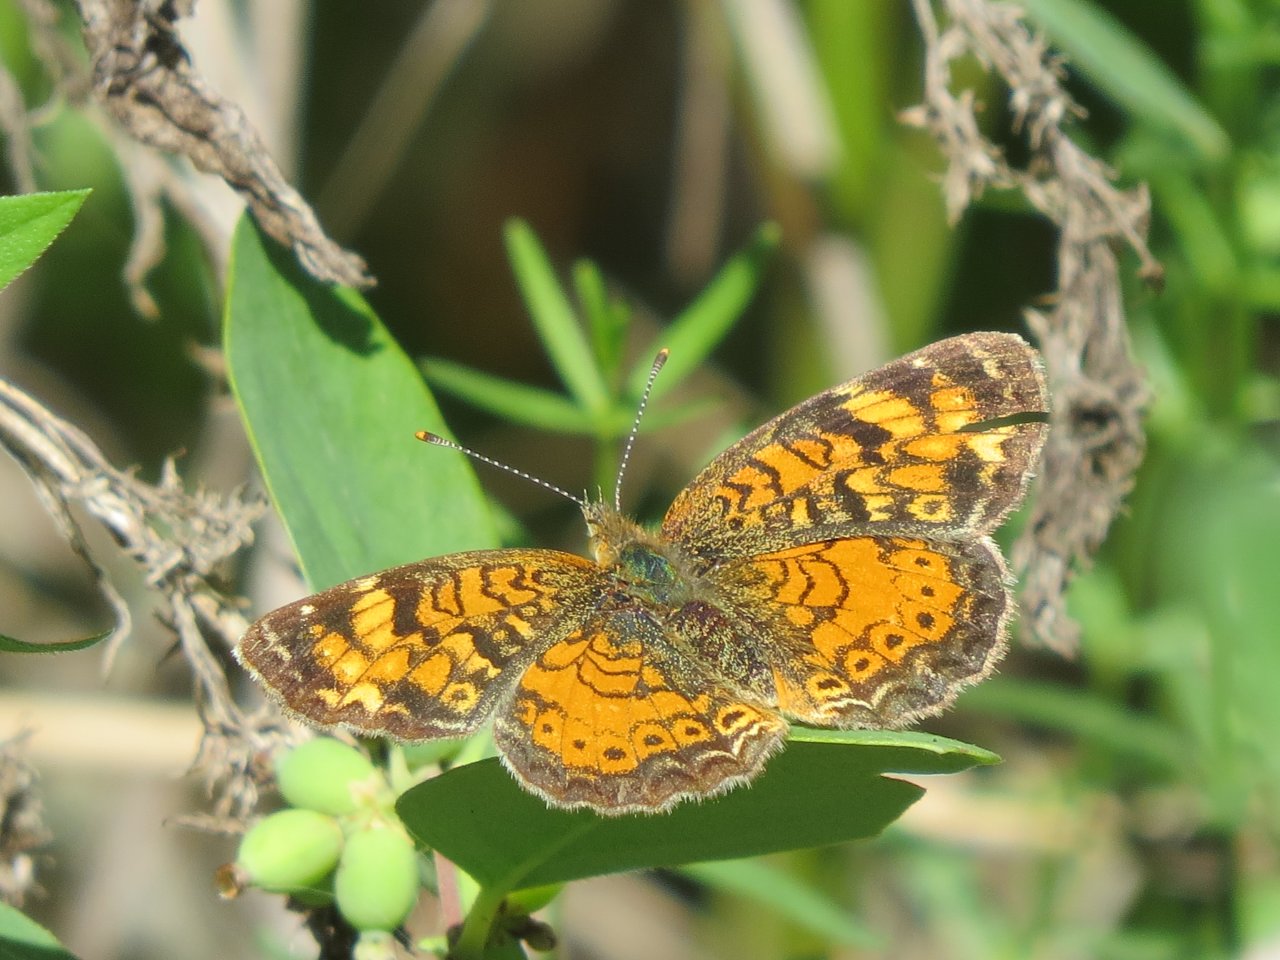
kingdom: Animalia
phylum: Arthropoda
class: Insecta
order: Lepidoptera
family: Nymphalidae
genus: Phyciodes
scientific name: Phyciodes tharos
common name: Northern Crescent
